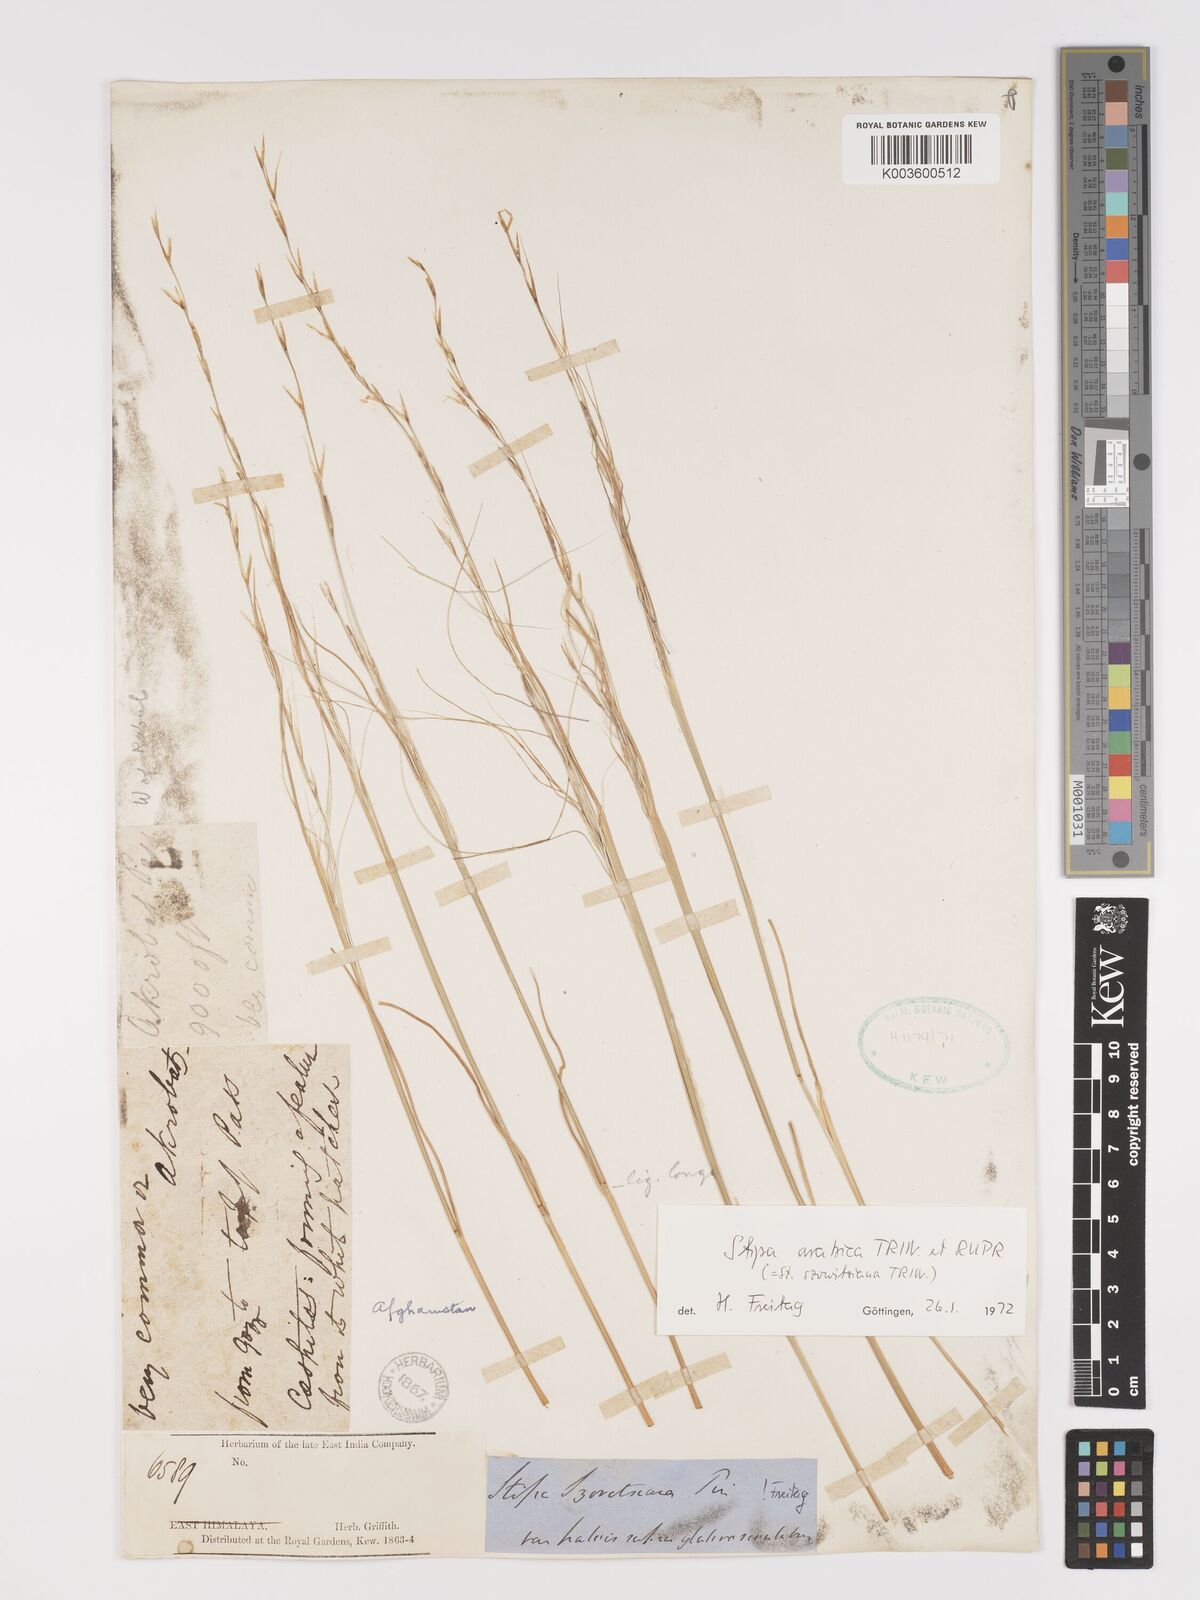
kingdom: Plantae
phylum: Tracheophyta
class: Liliopsida
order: Poales
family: Poaceae
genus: Stipa
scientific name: Stipa arabica
